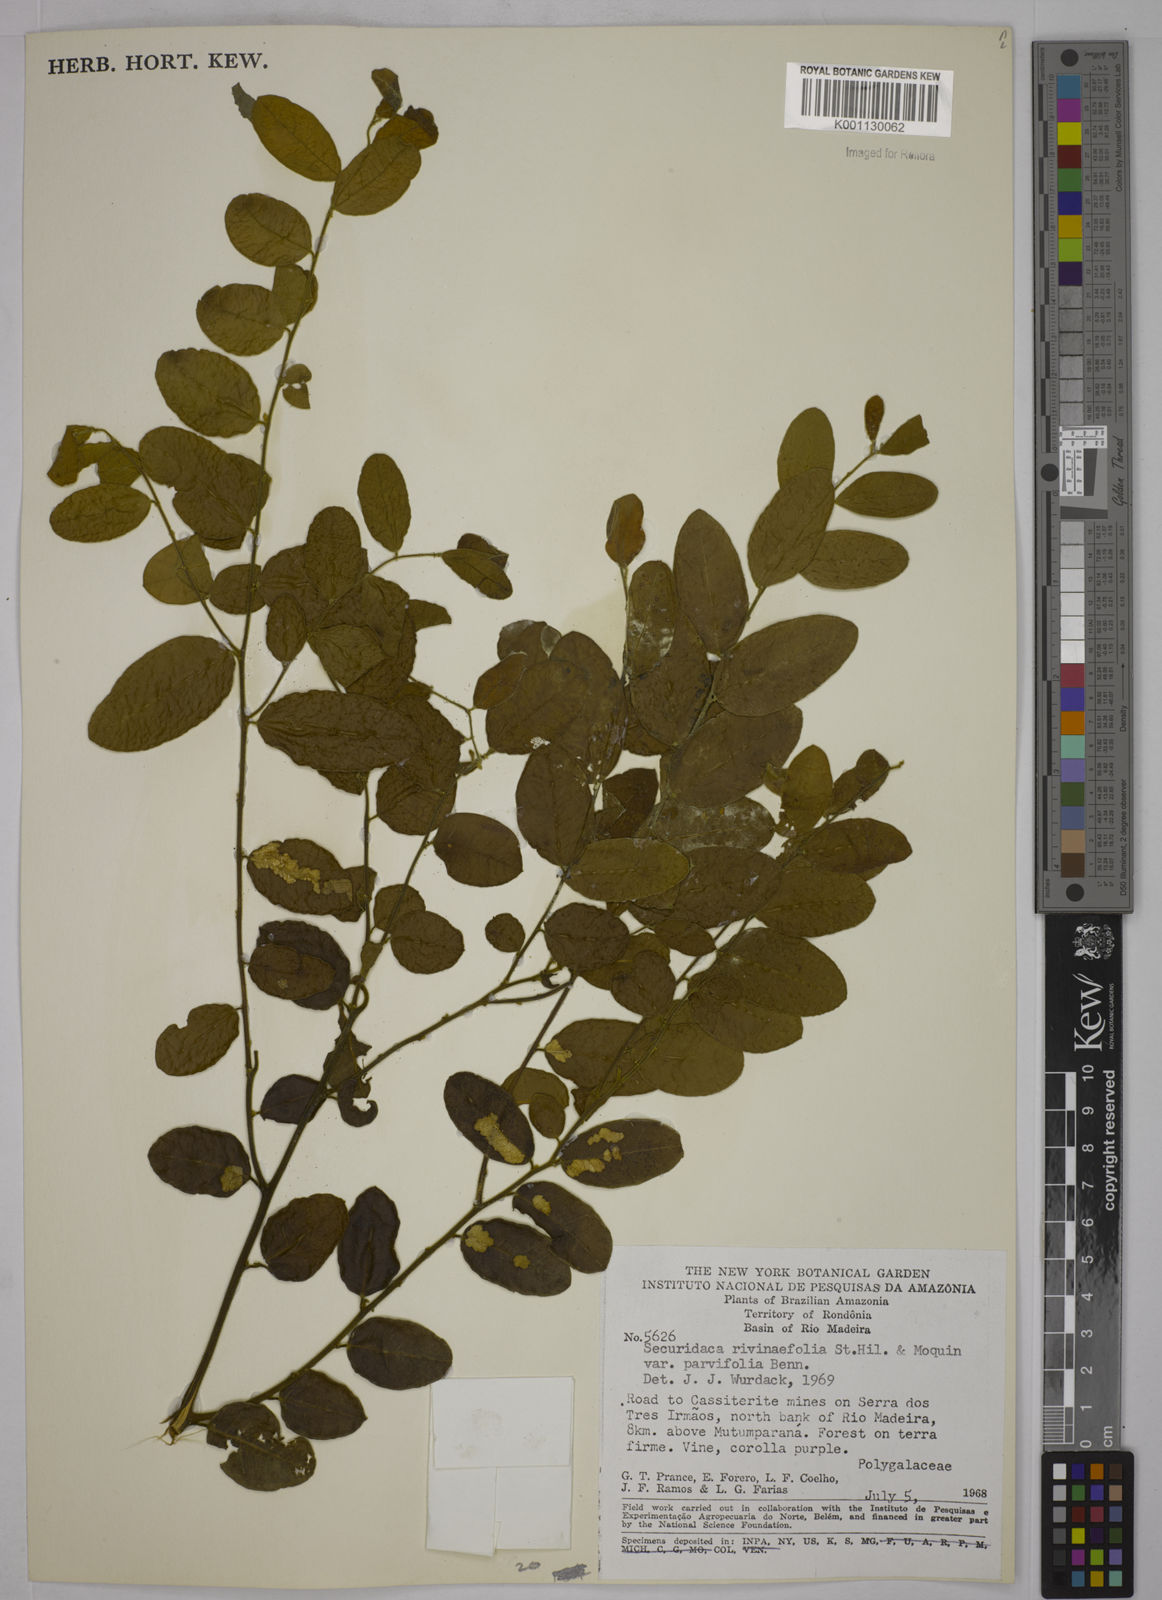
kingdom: Plantae
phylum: Tracheophyta
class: Magnoliopsida
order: Fabales
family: Polygalaceae
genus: Securidaca
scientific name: Securidaca rivinifolia
